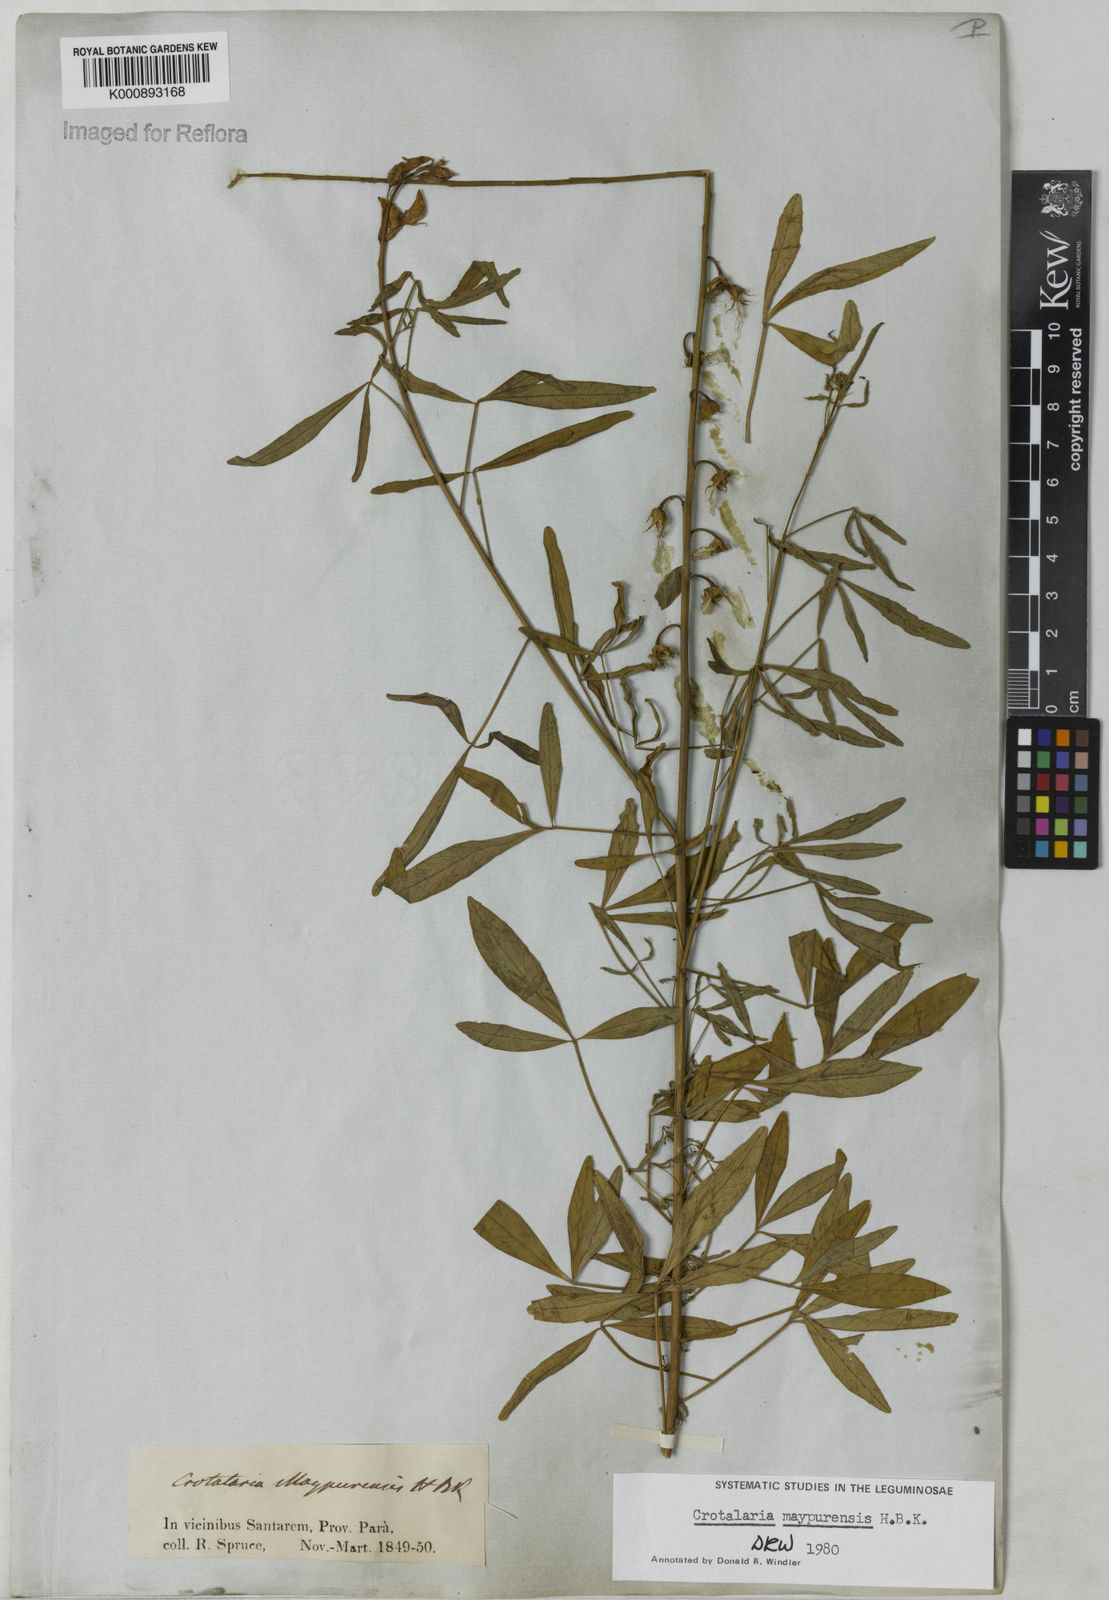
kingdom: Plantae
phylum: Tracheophyta
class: Magnoliopsida
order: Fabales
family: Fabaceae
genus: Crotalaria
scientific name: Crotalaria maypurensis
